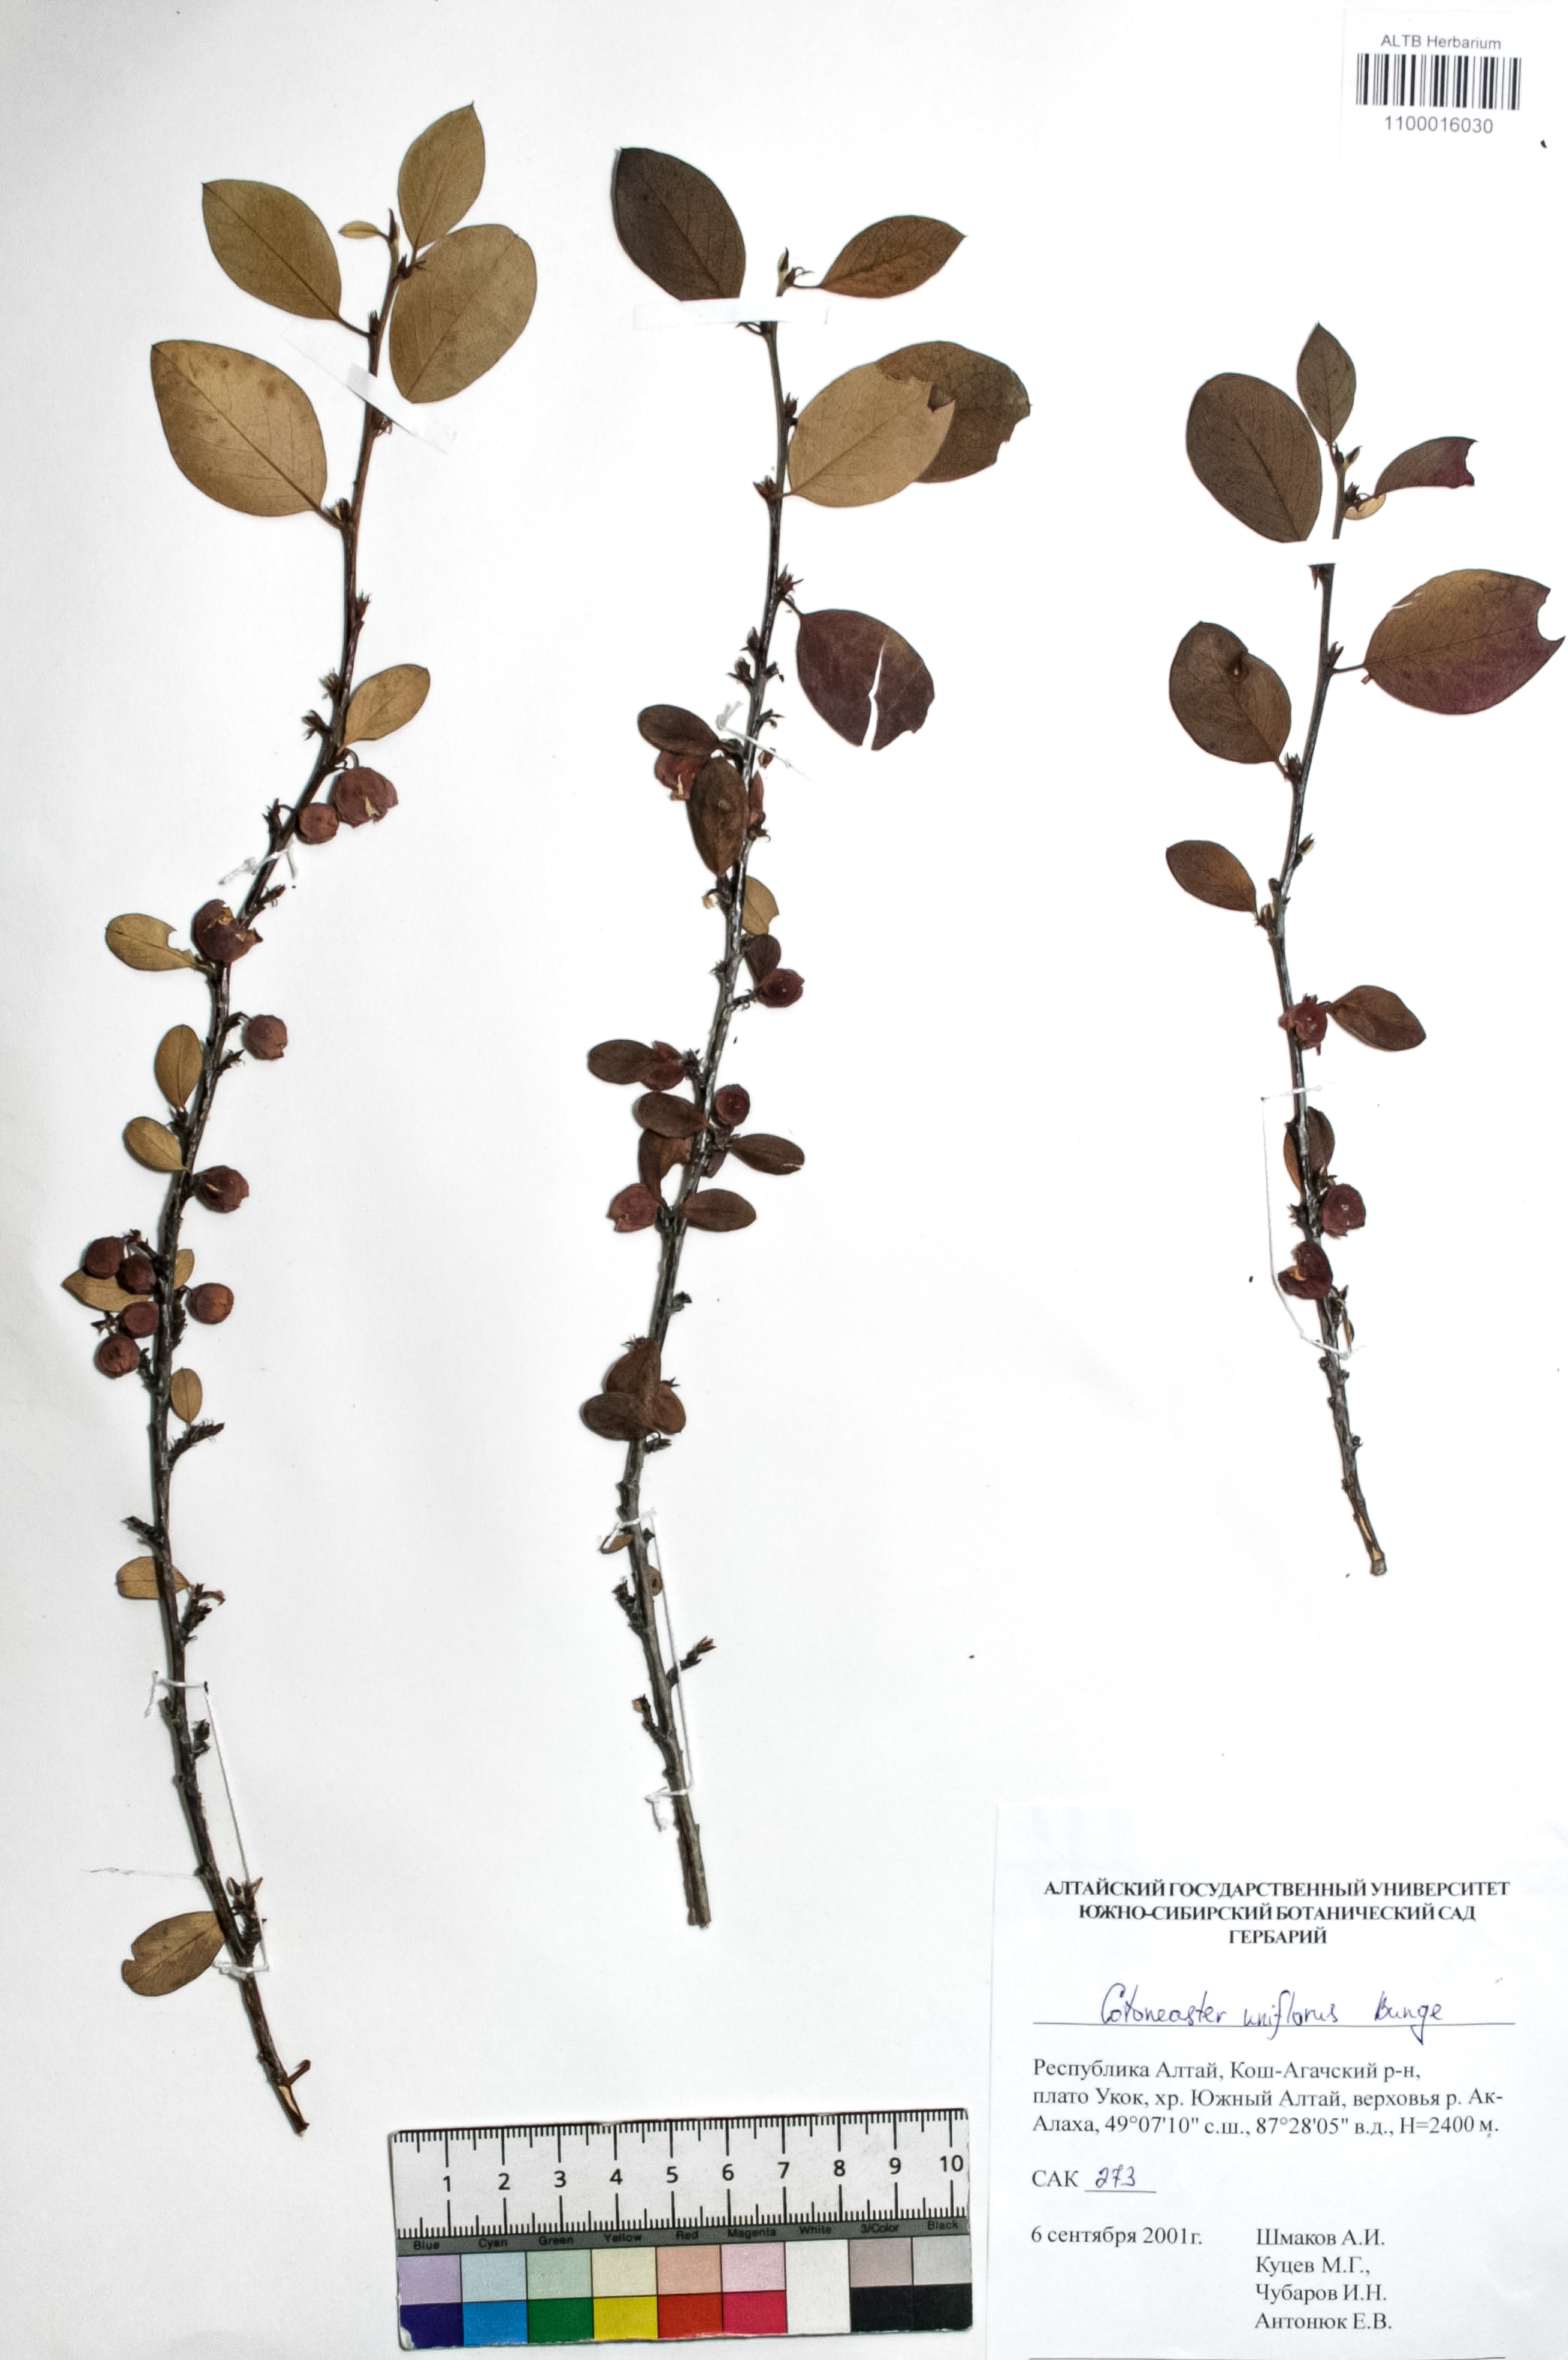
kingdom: Plantae
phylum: Tracheophyta
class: Magnoliopsida
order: Rosales
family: Rosaceae
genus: Cotoneaster
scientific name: Cotoneaster uniflorus
